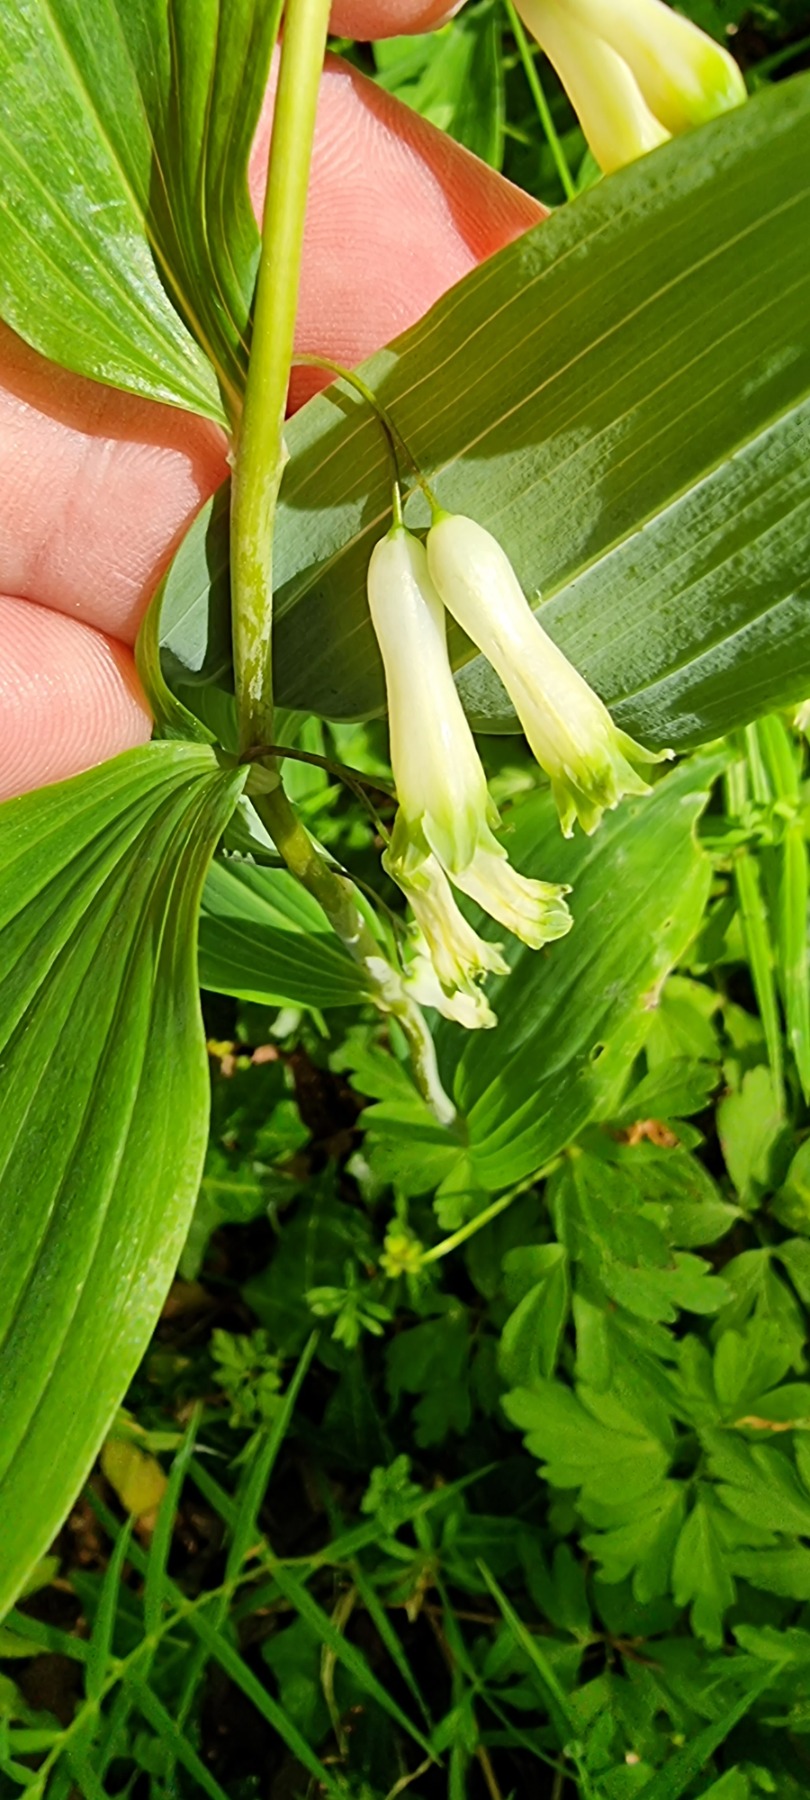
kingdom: Plantae
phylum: Tracheophyta
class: Liliopsida
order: Asparagales
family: Asparagaceae
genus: Polygonatum
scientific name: Polygonatum multiflorum
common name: Stor konval
